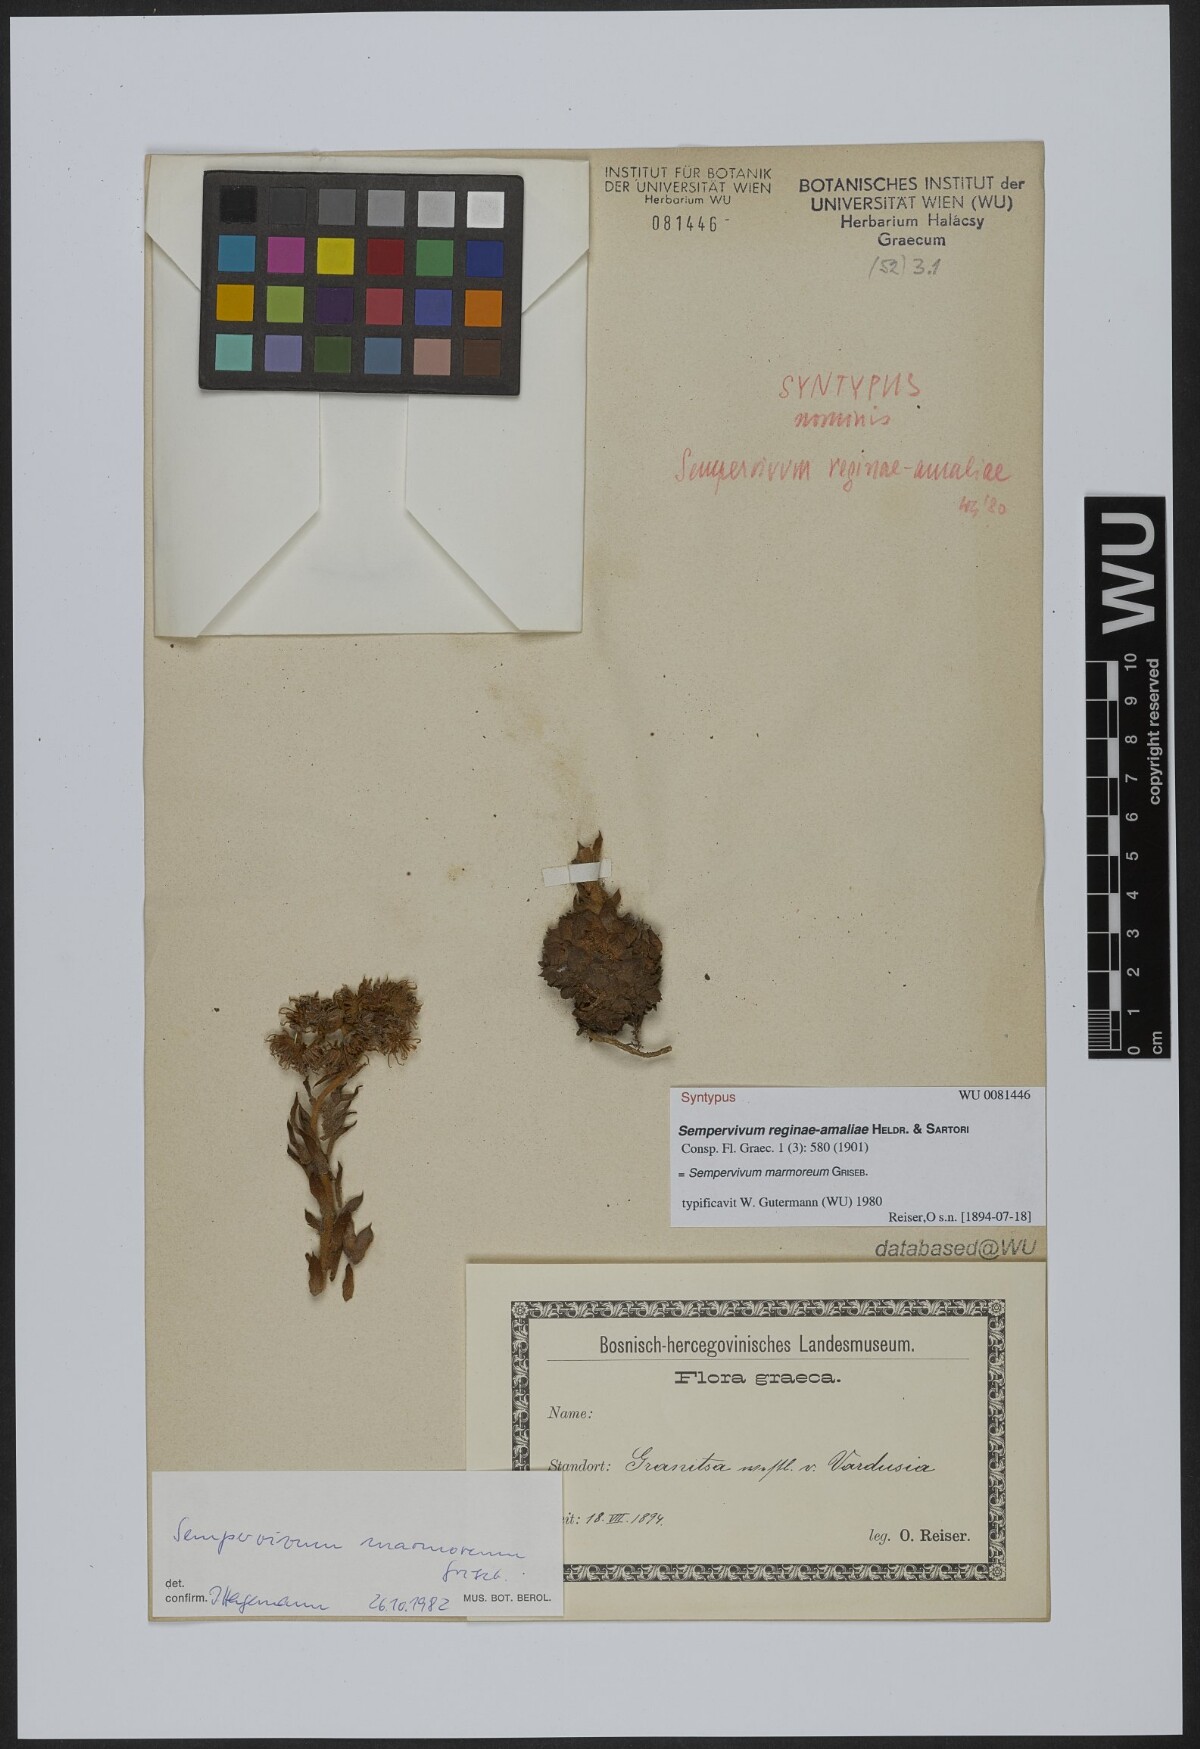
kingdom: Plantae
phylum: Tracheophyta
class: Magnoliopsida
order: Saxifragales
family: Crassulaceae
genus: Sempervivum
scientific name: Sempervivum verereginae-amaliae
